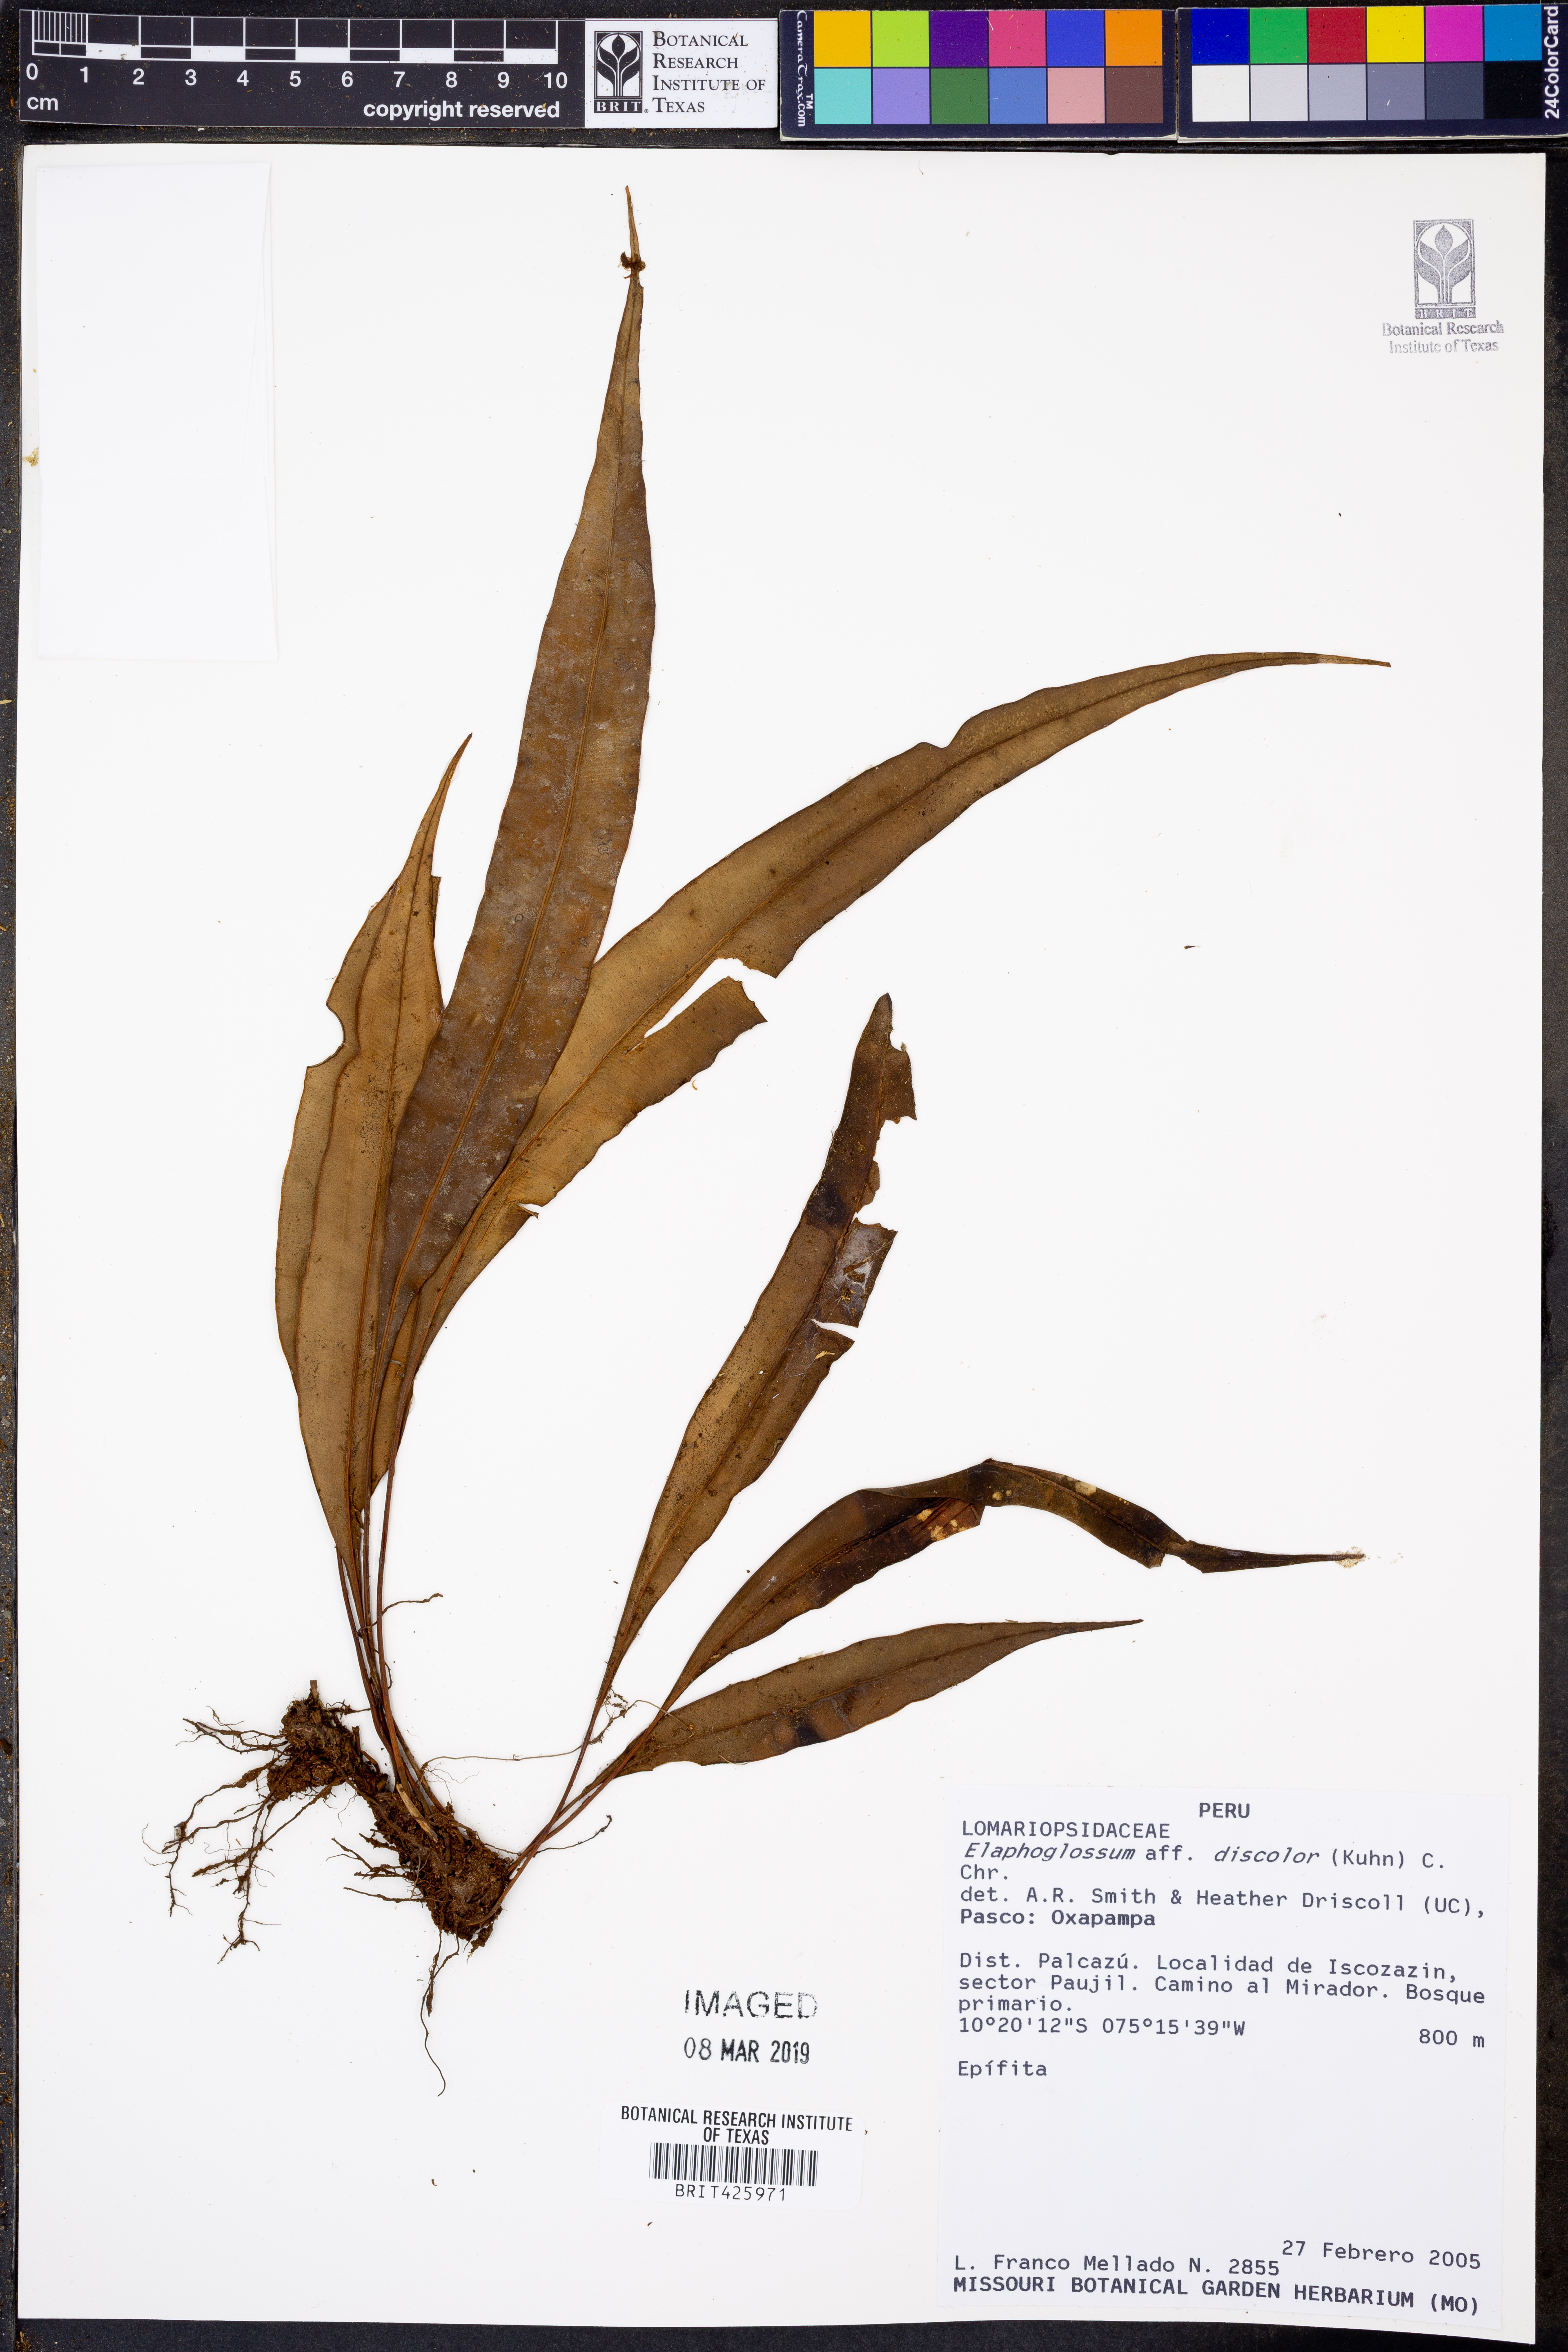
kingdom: Plantae
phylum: Tracheophyta
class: Polypodiopsida
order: Polypodiales
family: Dryopteridaceae
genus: Elaphoglossum
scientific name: Elaphoglossum discolor
